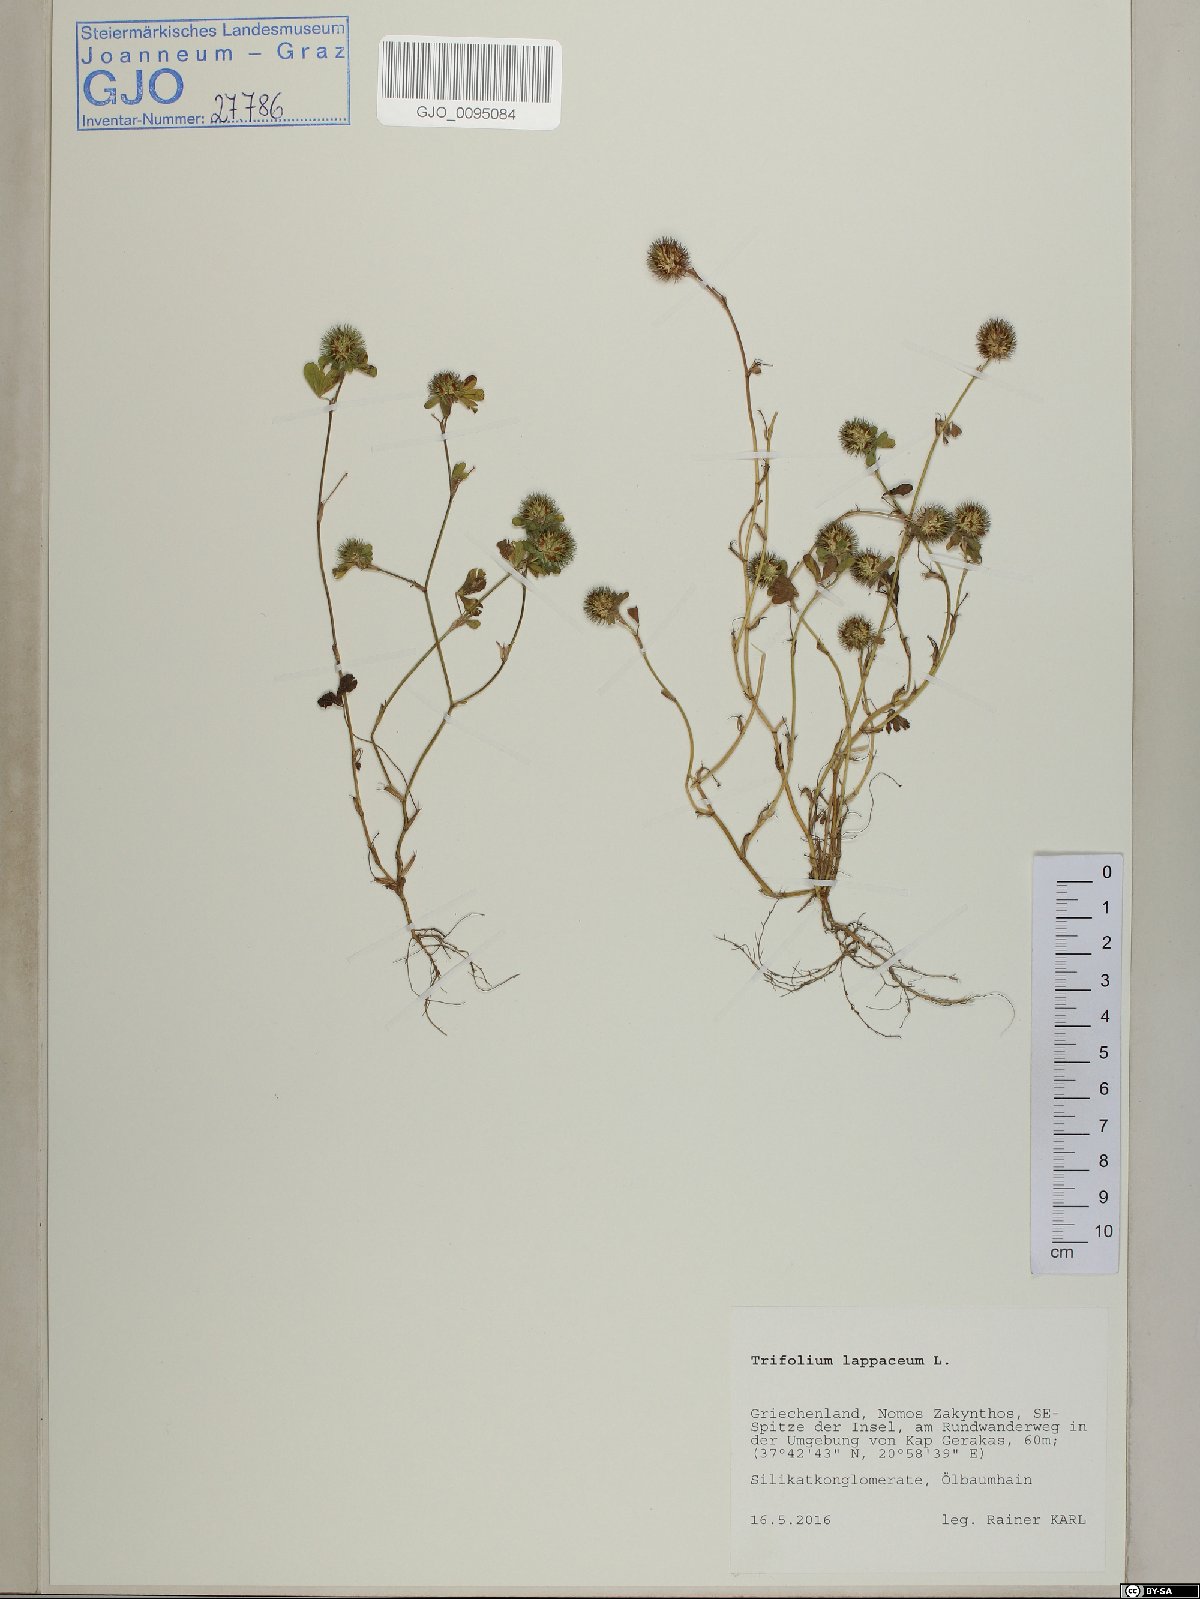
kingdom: Plantae
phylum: Tracheophyta
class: Magnoliopsida
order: Fabales
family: Fabaceae
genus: Trifolium
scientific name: Trifolium lappaceum
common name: Bur clover
